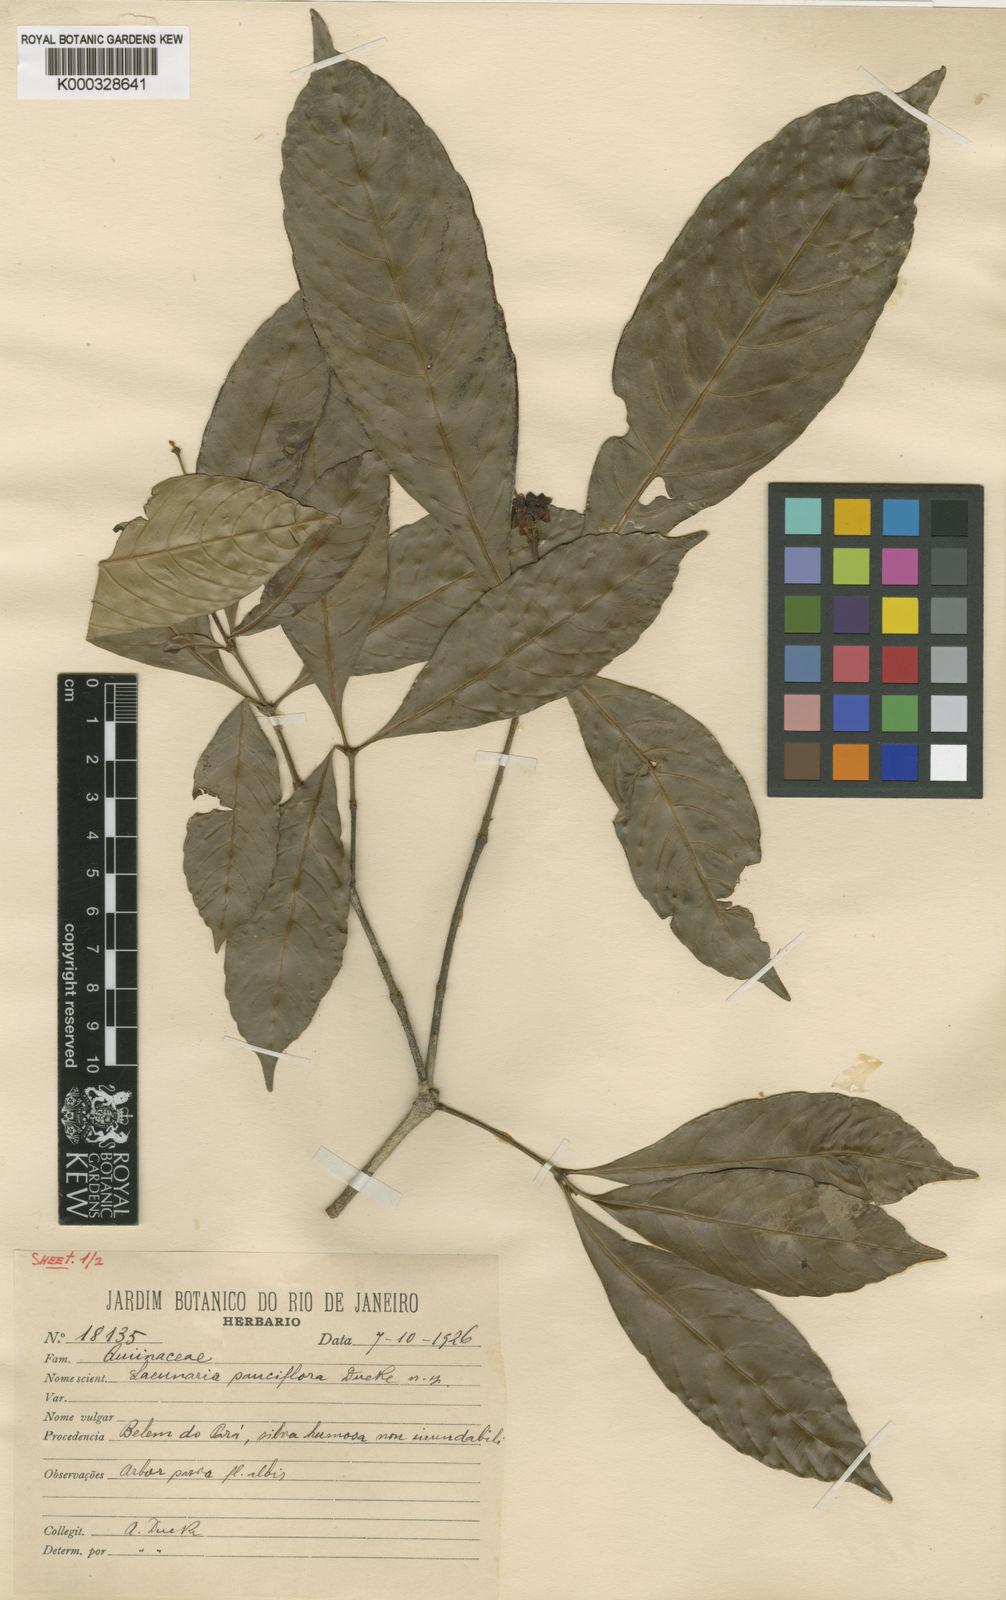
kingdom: Plantae
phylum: Tracheophyta
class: Magnoliopsida
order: Malpighiales
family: Quiinaceae
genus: Lacunaria
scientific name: Lacunaria crenata
